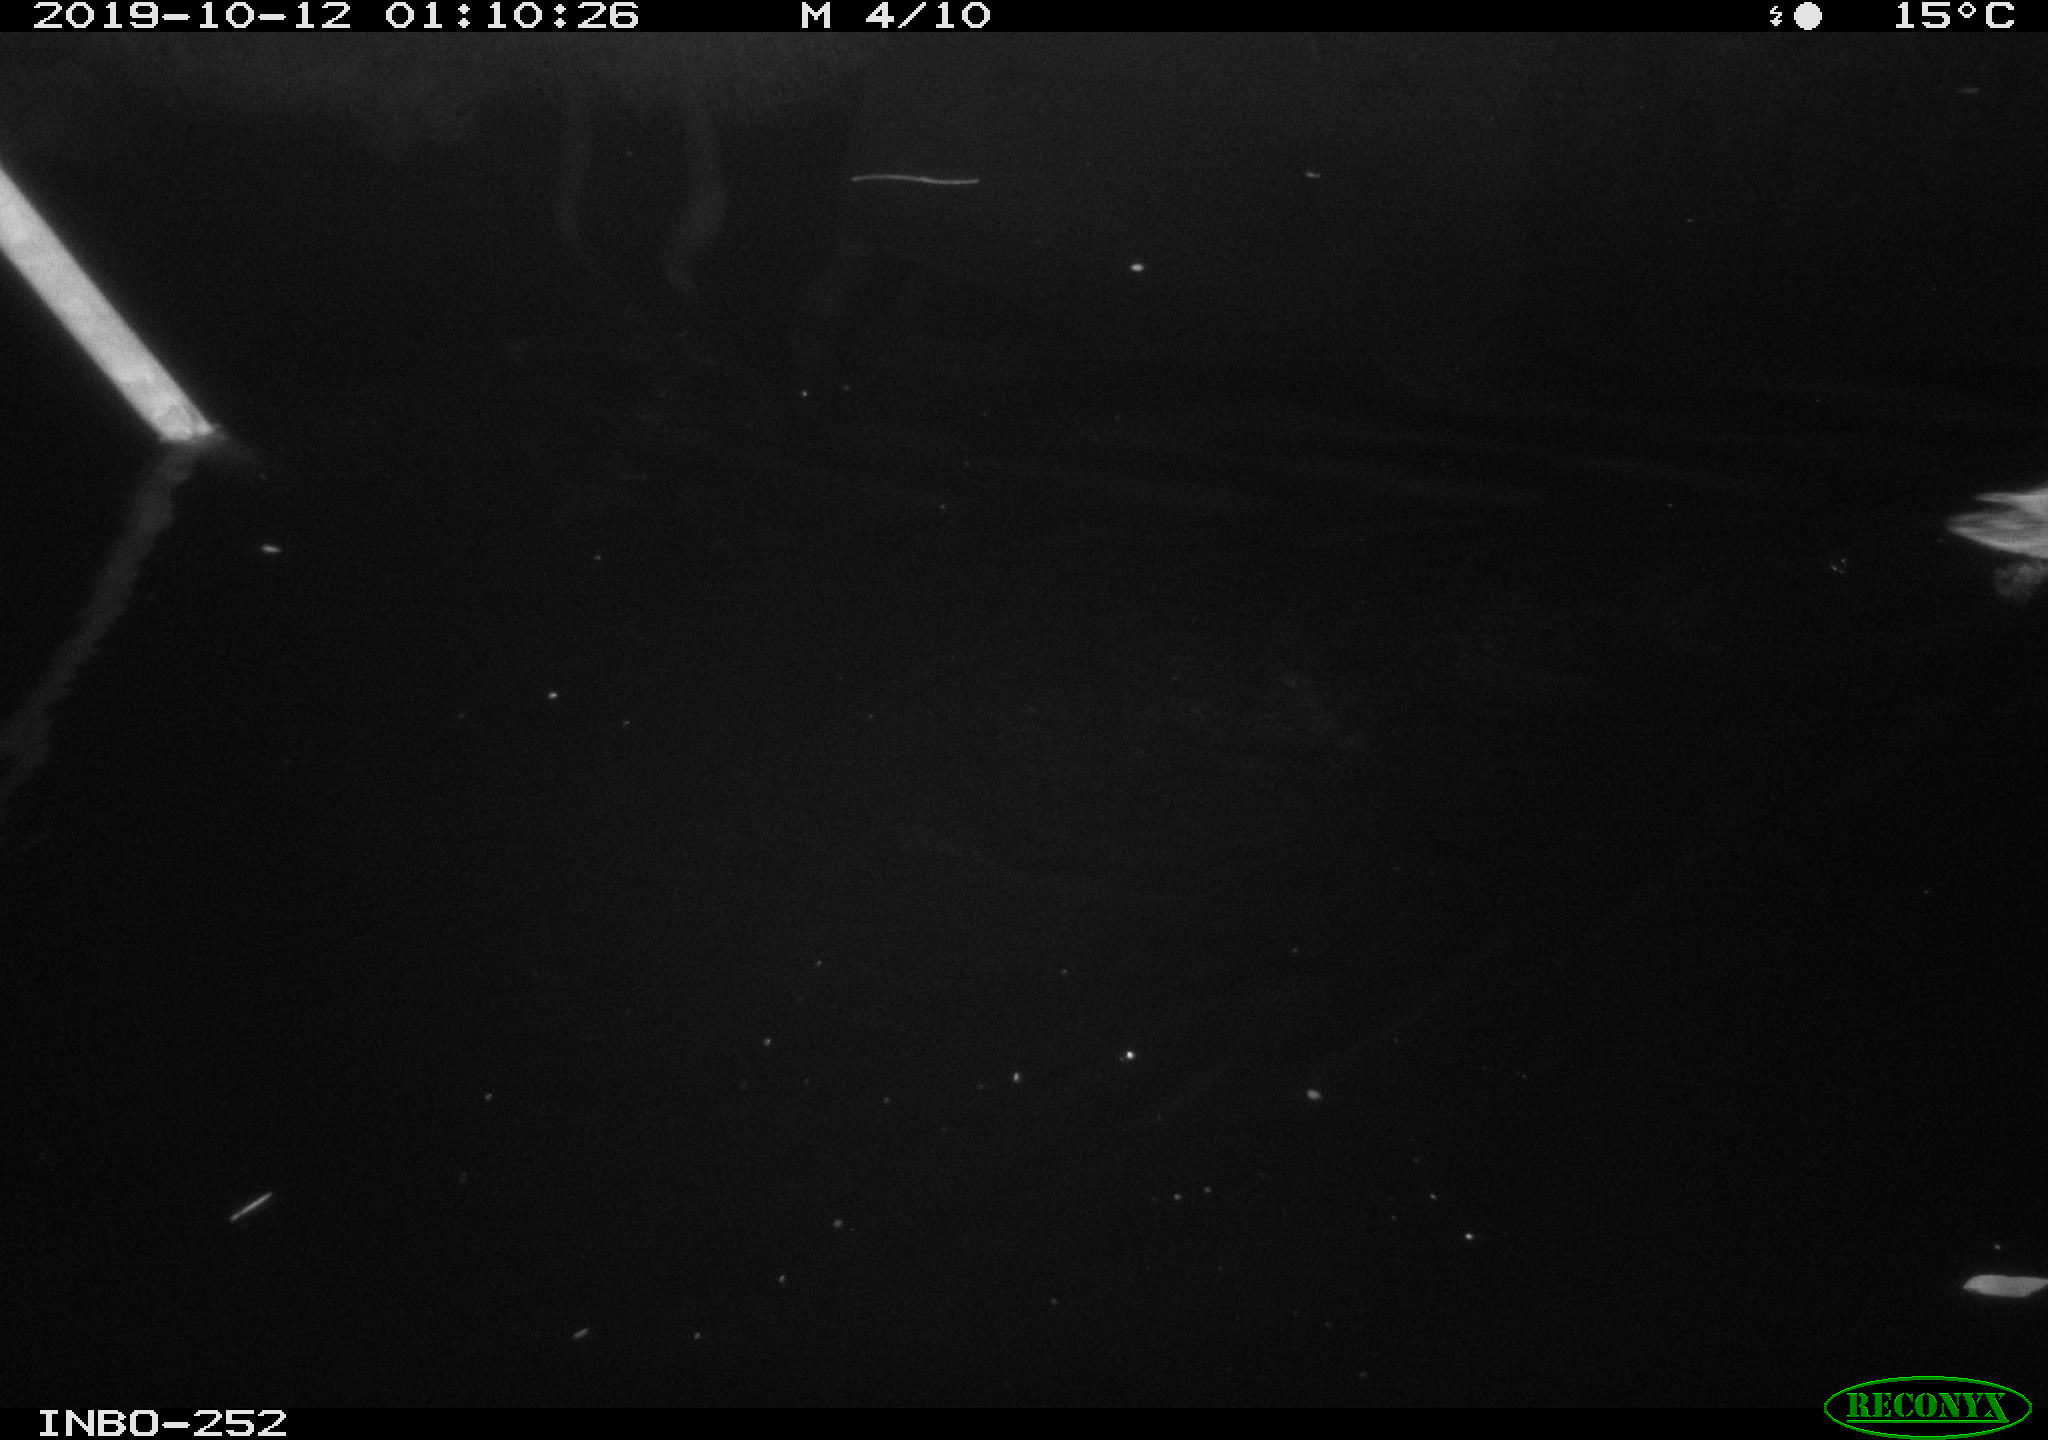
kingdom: Animalia
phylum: Chordata
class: Aves
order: Anseriformes
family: Anatidae
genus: Anas
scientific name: Anas platyrhynchos
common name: Mallard
